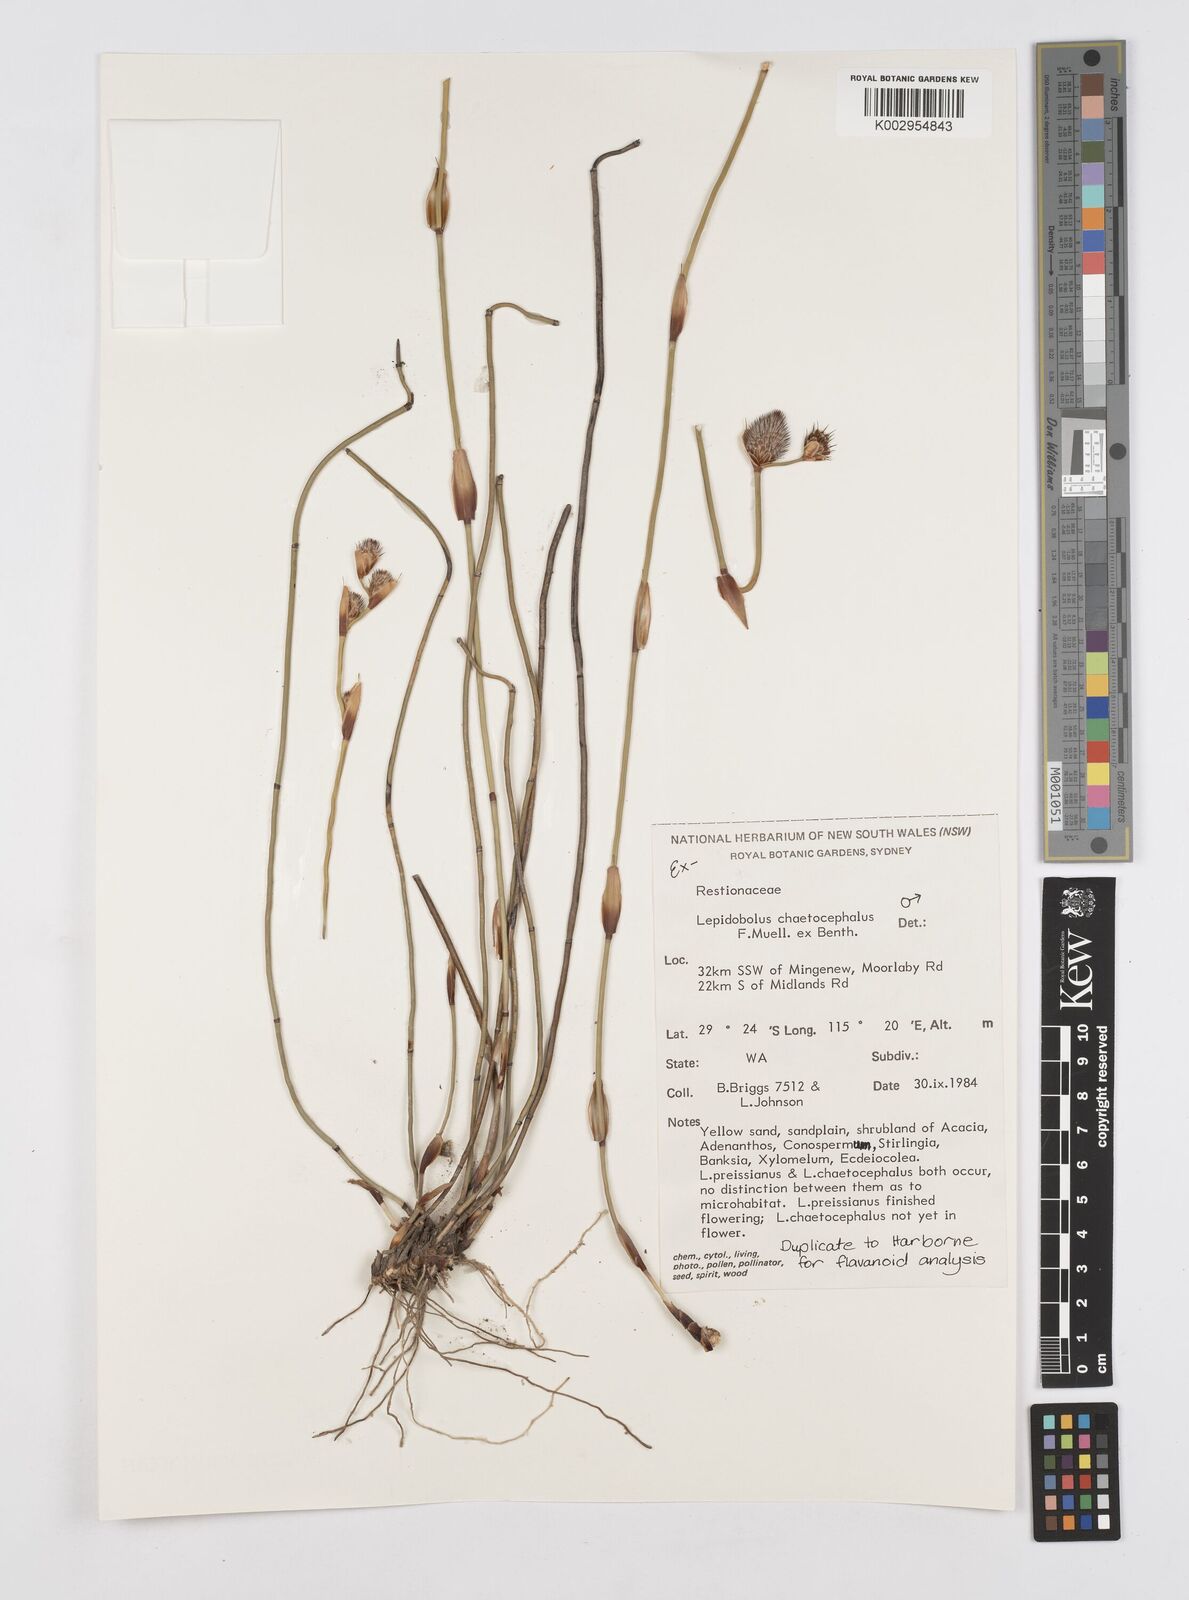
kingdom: Plantae
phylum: Tracheophyta
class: Liliopsida
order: Poales
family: Restionaceae
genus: Lepidobolus
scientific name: Lepidobolus chaetocephalus
